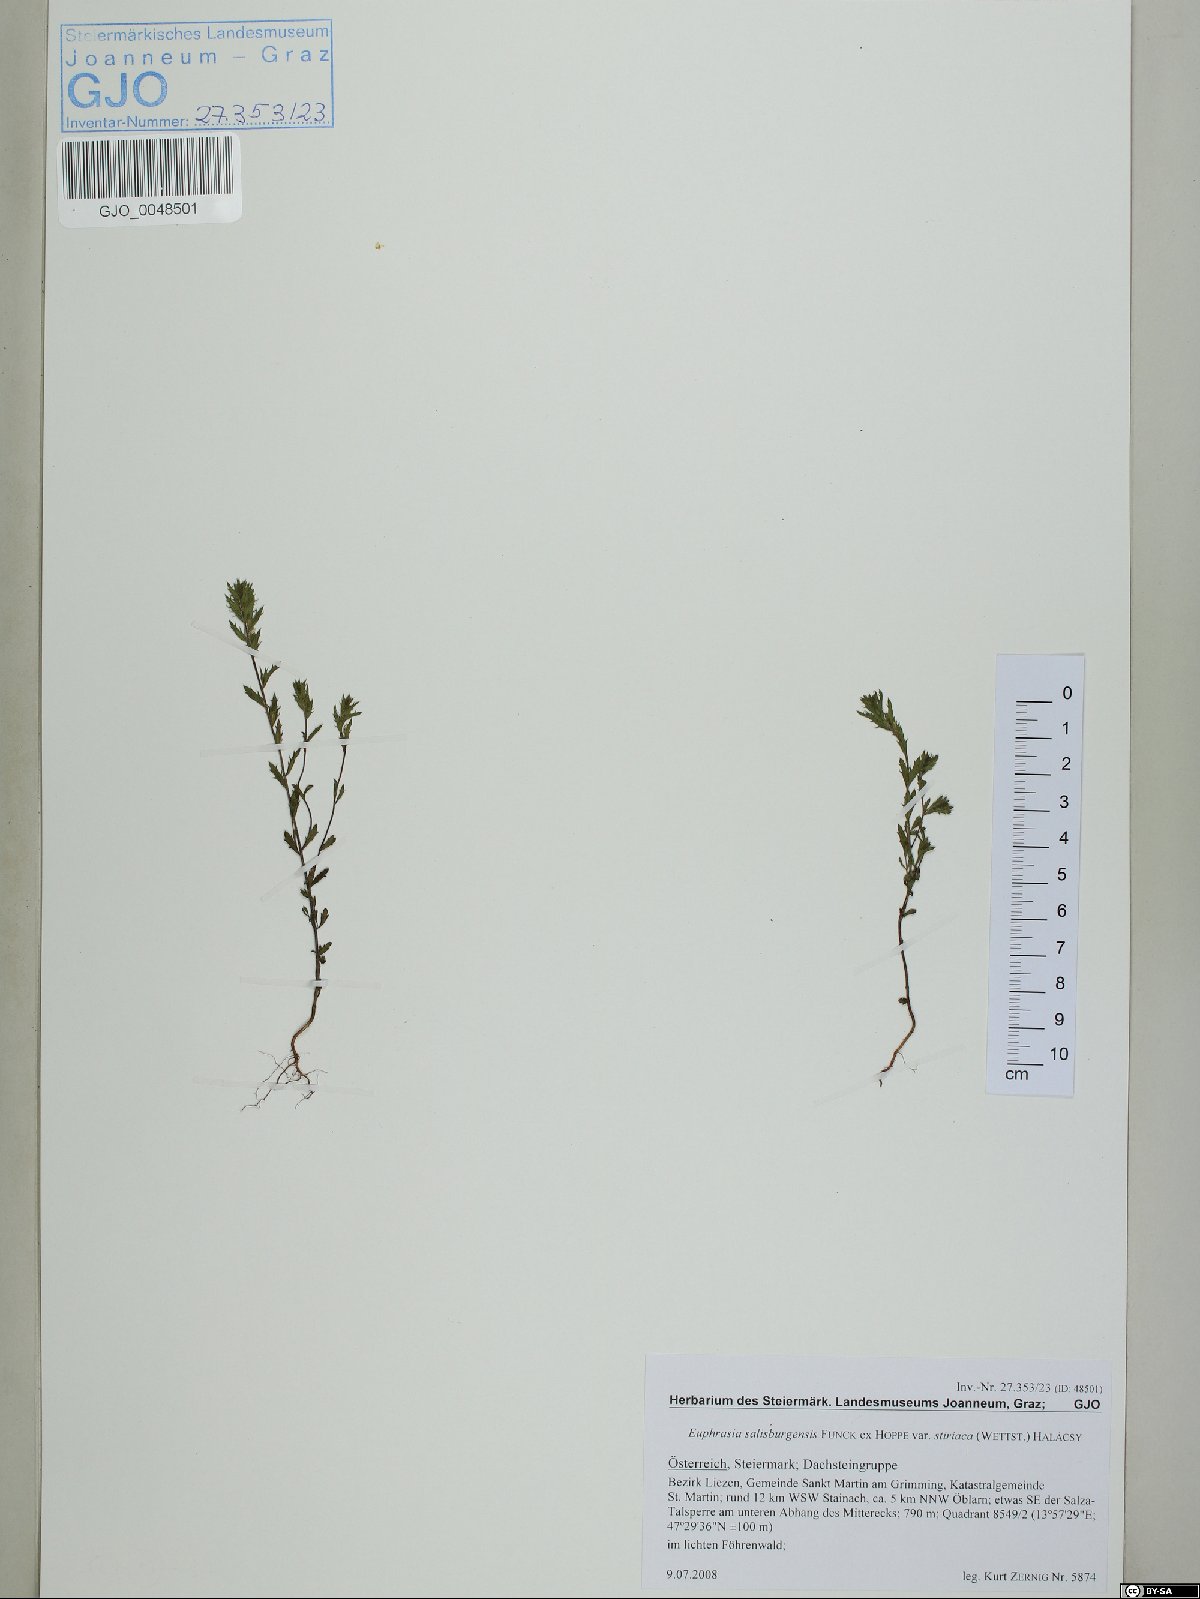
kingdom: Plantae
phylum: Tracheophyta
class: Magnoliopsida
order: Lamiales
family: Orobanchaceae
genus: Euphrasia
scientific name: Euphrasia salisburgensis
